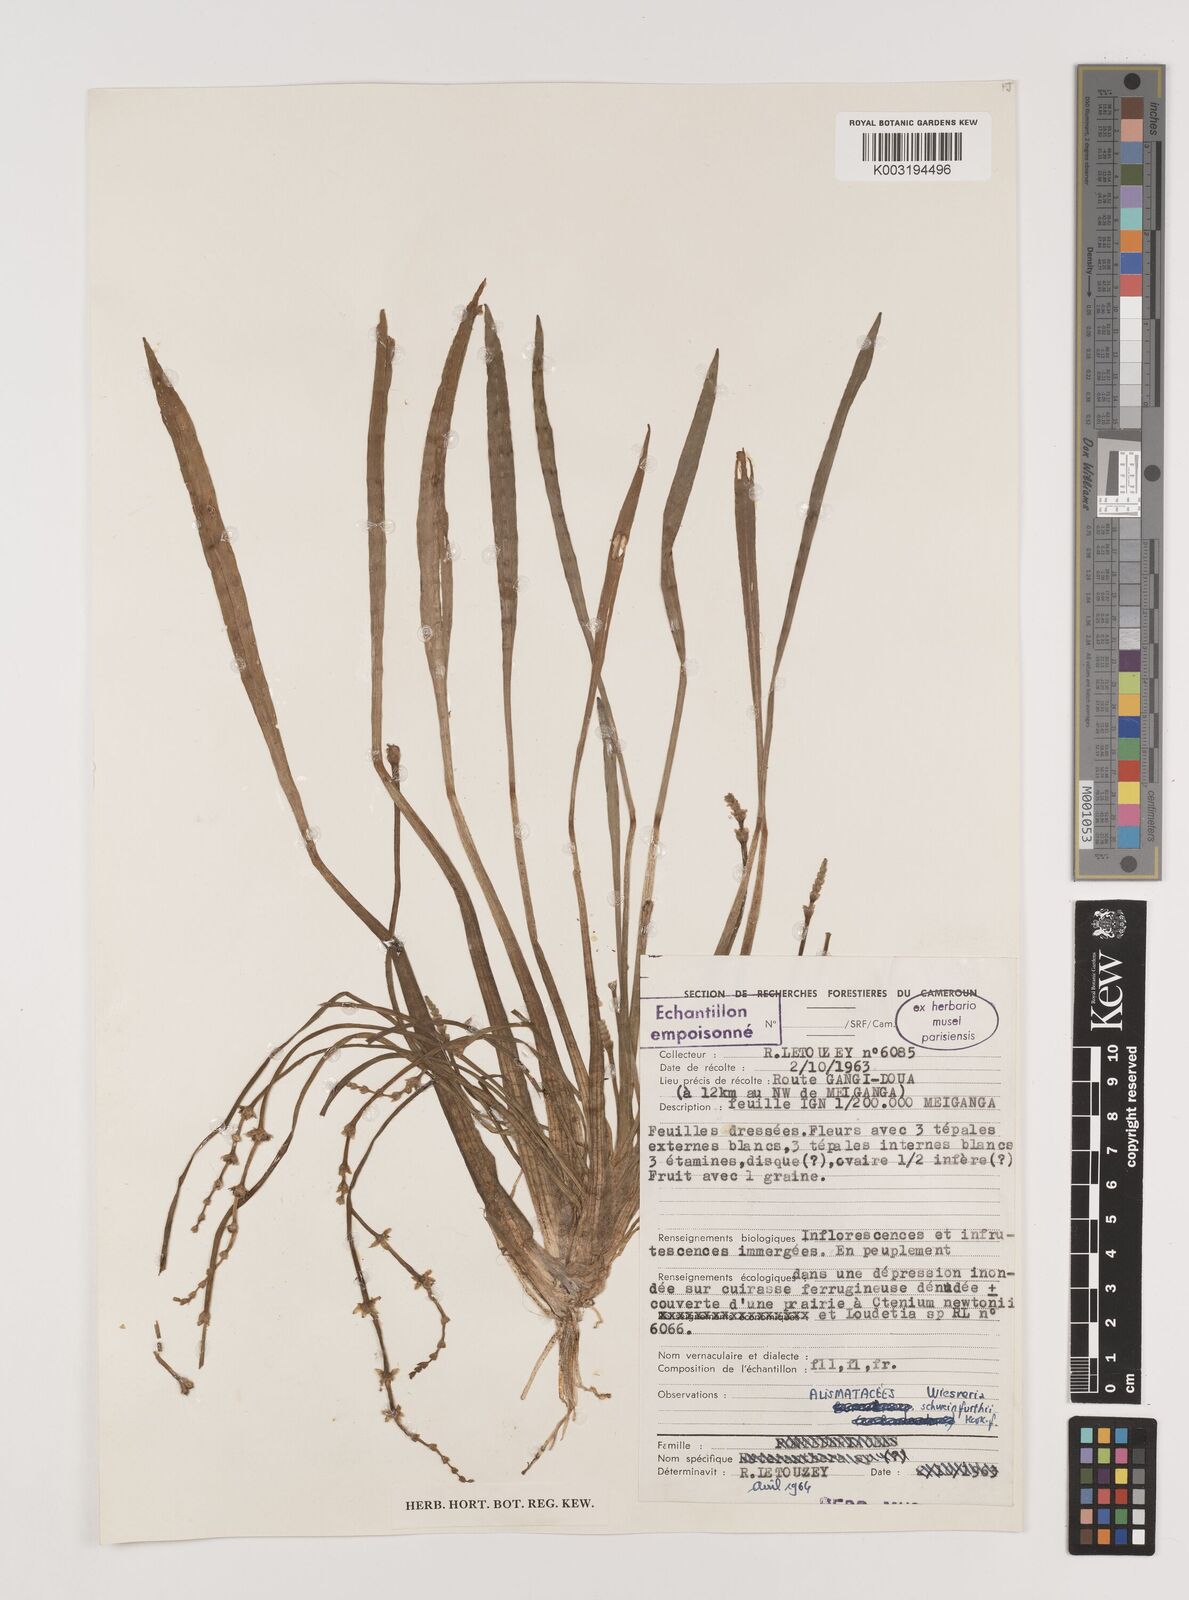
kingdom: Plantae
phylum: Tracheophyta
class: Liliopsida
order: Alismatales
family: Alismataceae
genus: Wiesneria
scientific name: Wiesneria schweinfurthii
